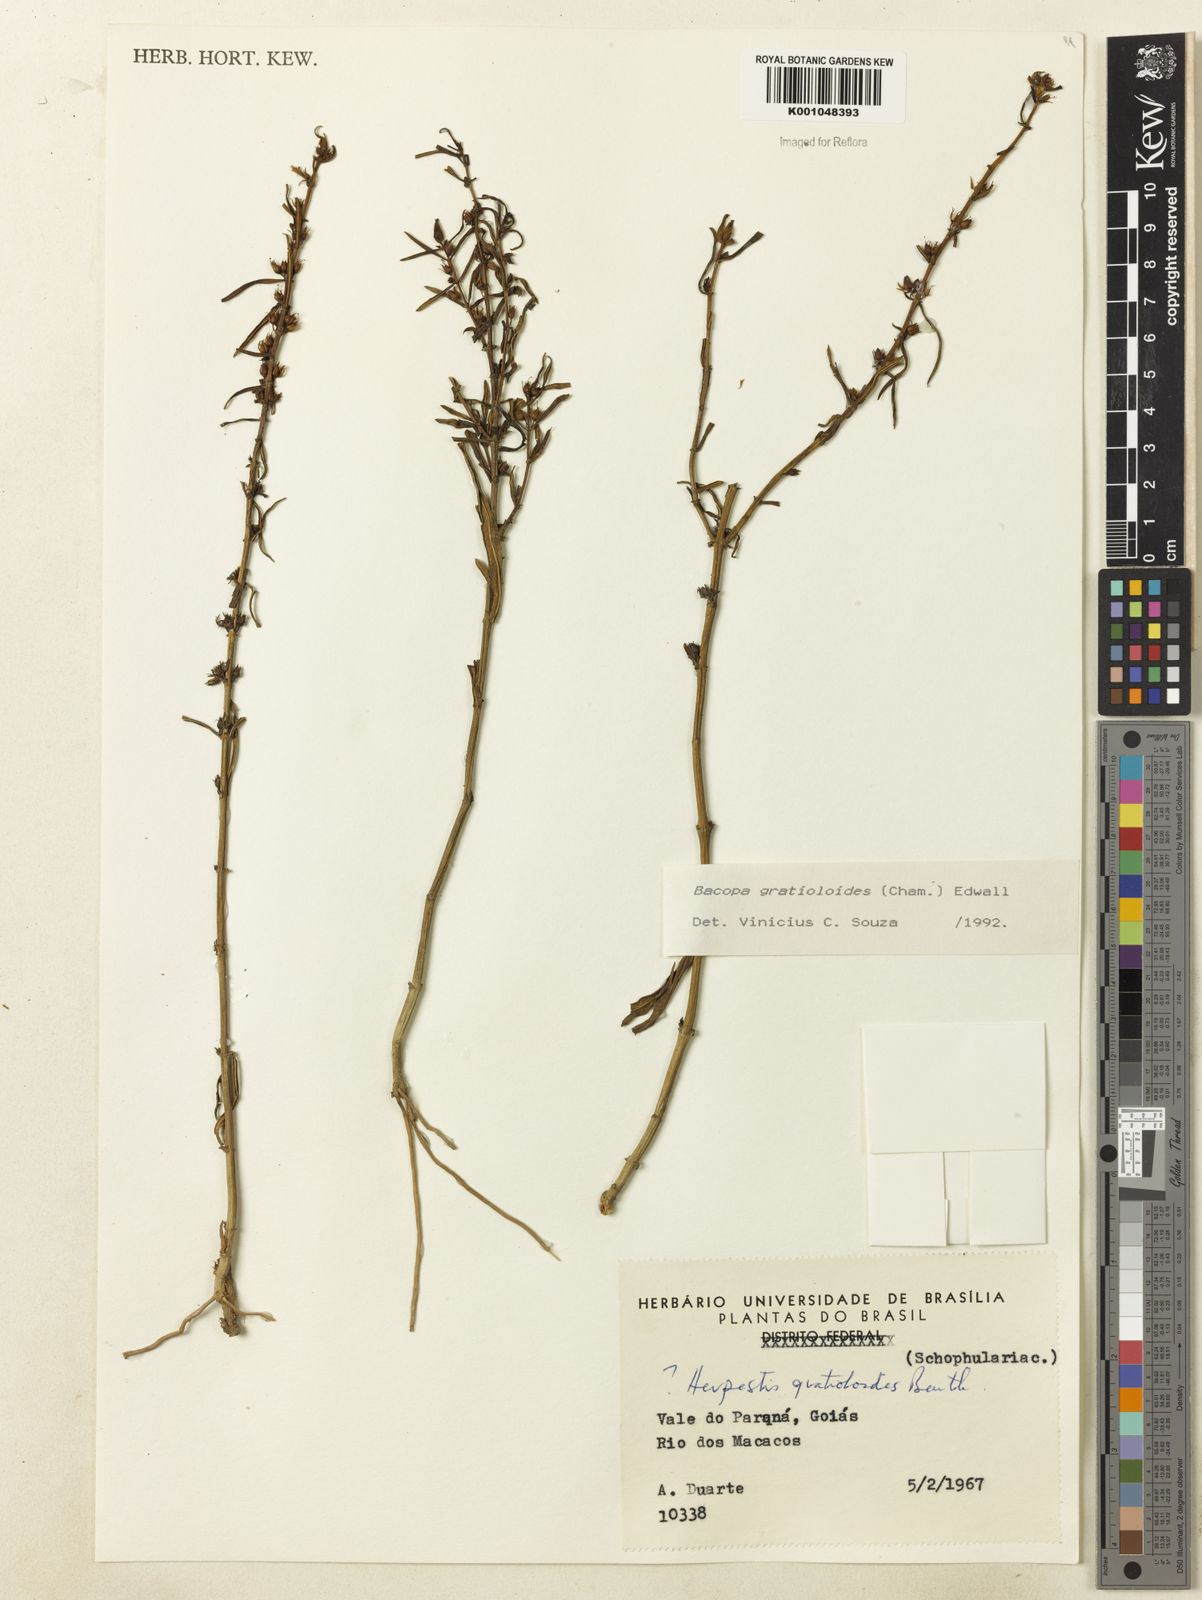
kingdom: Plantae
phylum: Tracheophyta
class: Magnoliopsida
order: Lamiales
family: Plantaginaceae
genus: Bacopa
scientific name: Bacopa
